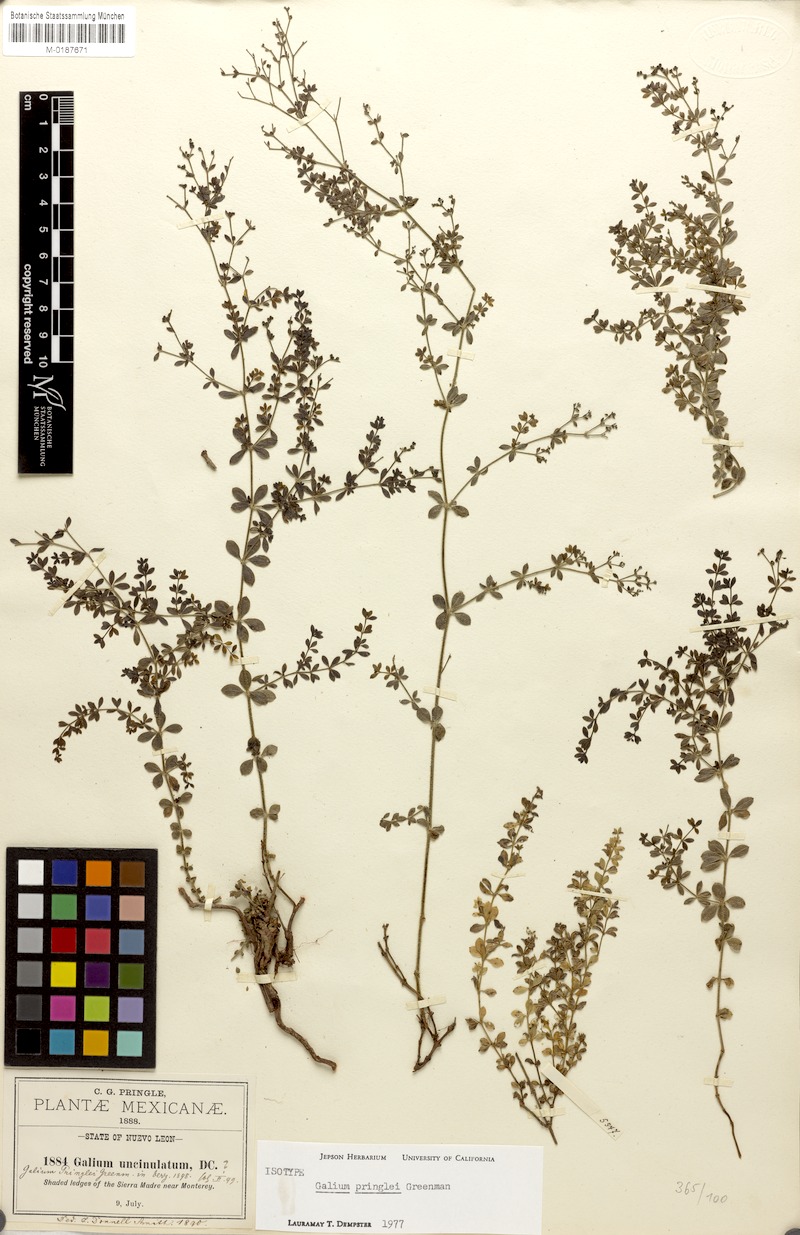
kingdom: Plantae
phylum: Tracheophyta
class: Magnoliopsida
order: Gentianales
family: Rubiaceae
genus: Galium
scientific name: Galium pringlei
